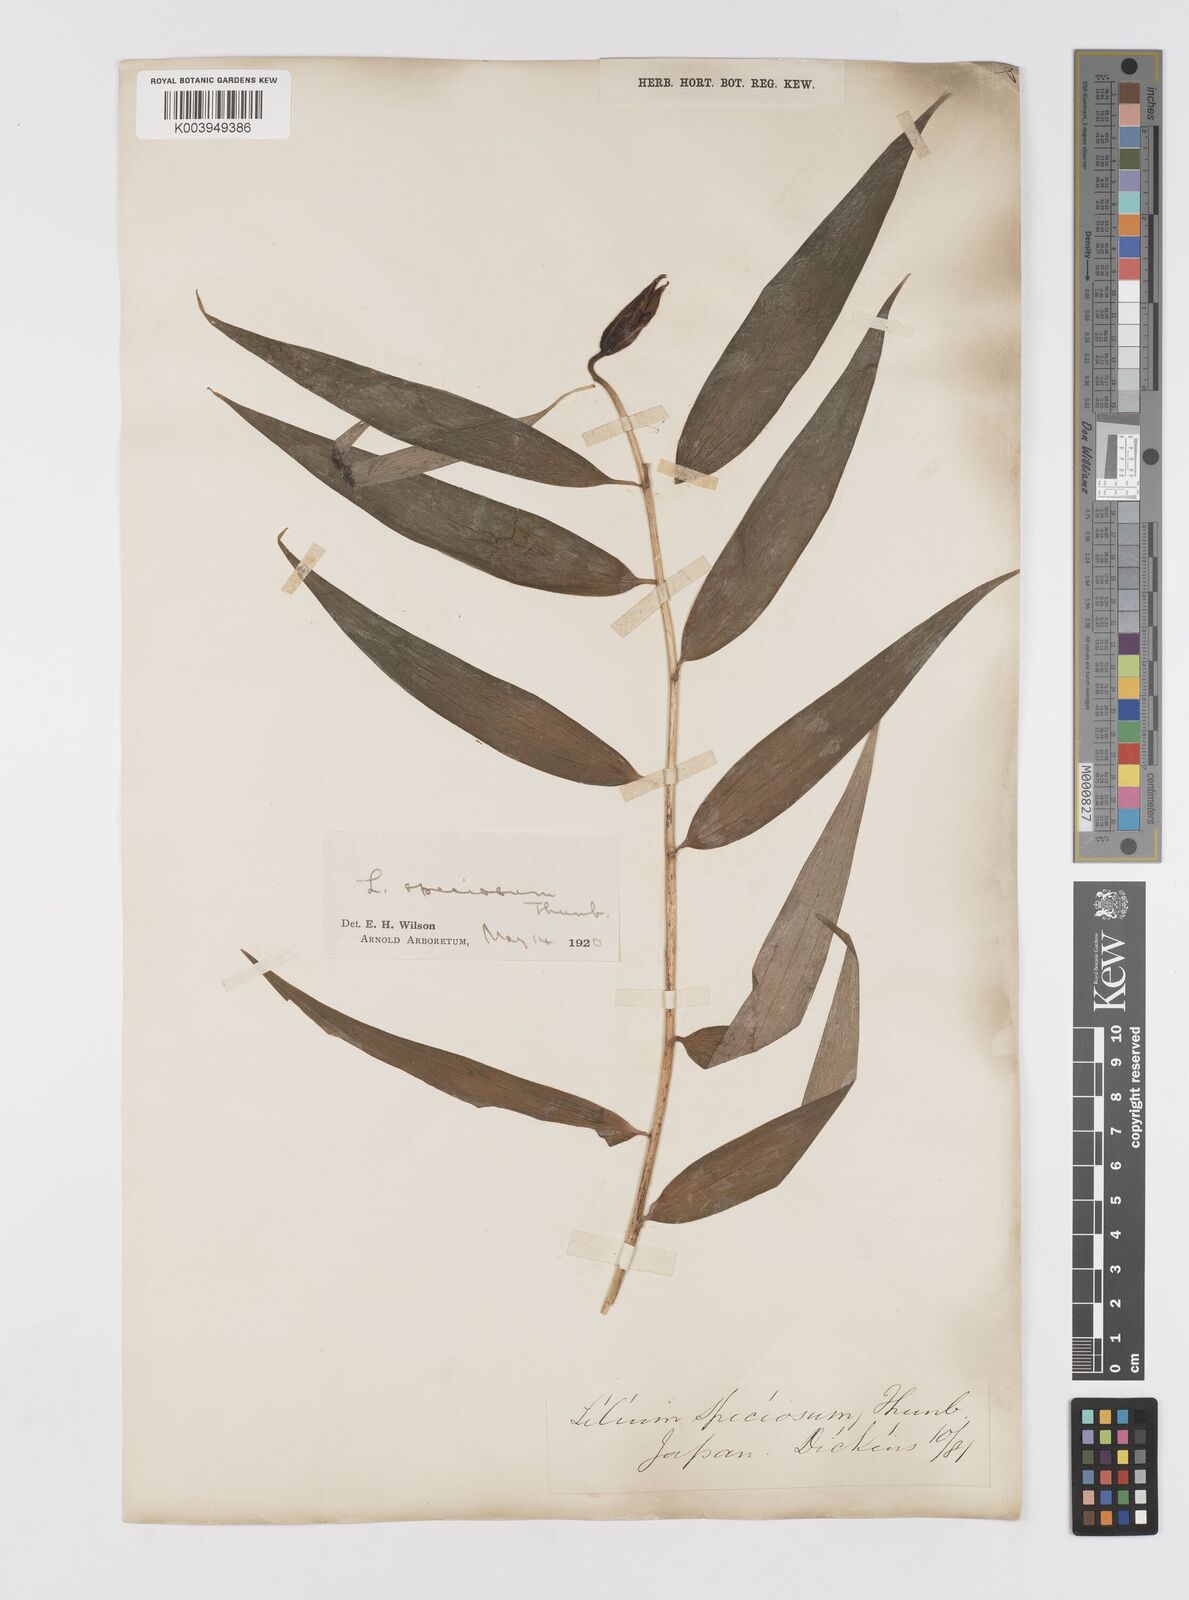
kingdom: Plantae
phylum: Tracheophyta
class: Liliopsida
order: Liliales
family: Liliaceae
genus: Lilium
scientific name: Lilium speciosum
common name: Japanese lily
